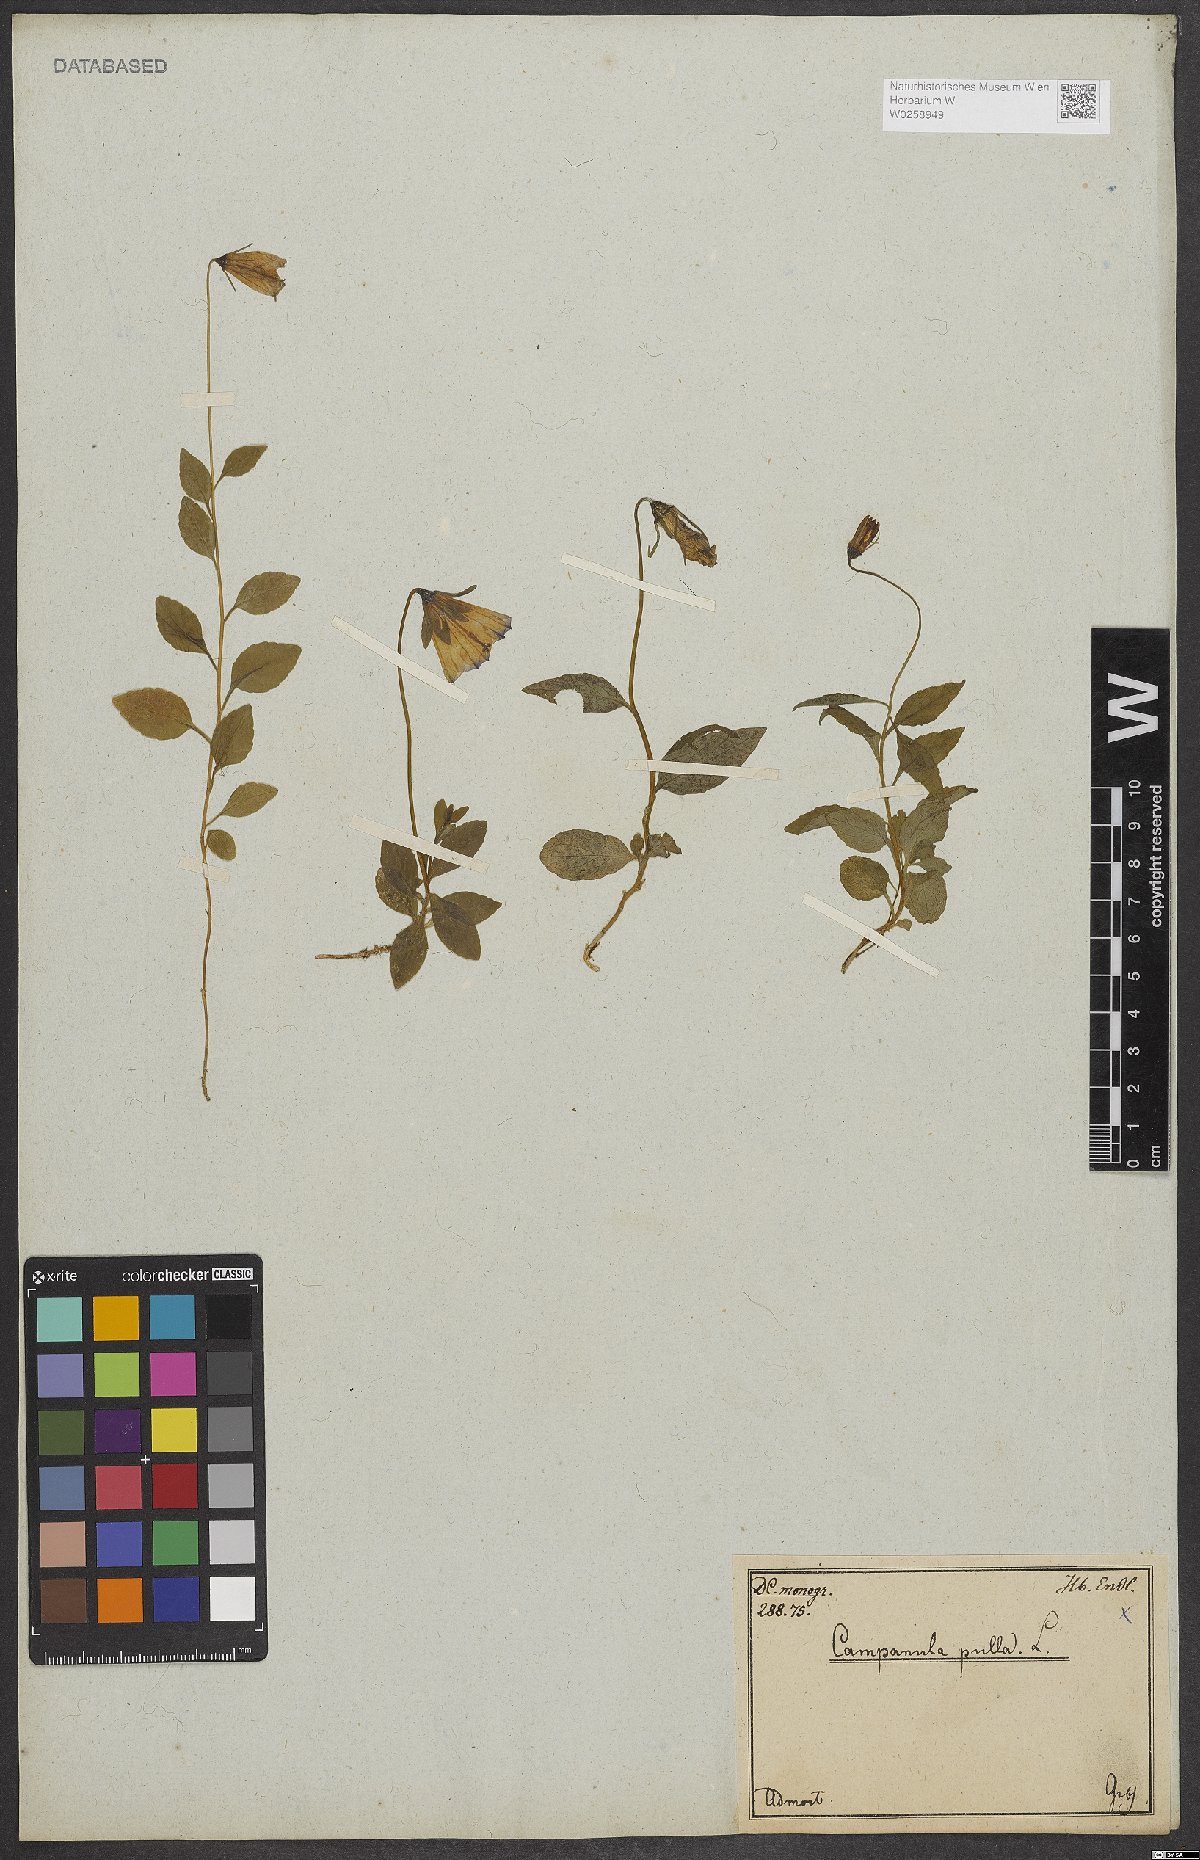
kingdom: Plantae
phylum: Tracheophyta
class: Magnoliopsida
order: Asterales
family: Campanulaceae
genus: Campanula
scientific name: Campanula pulla
